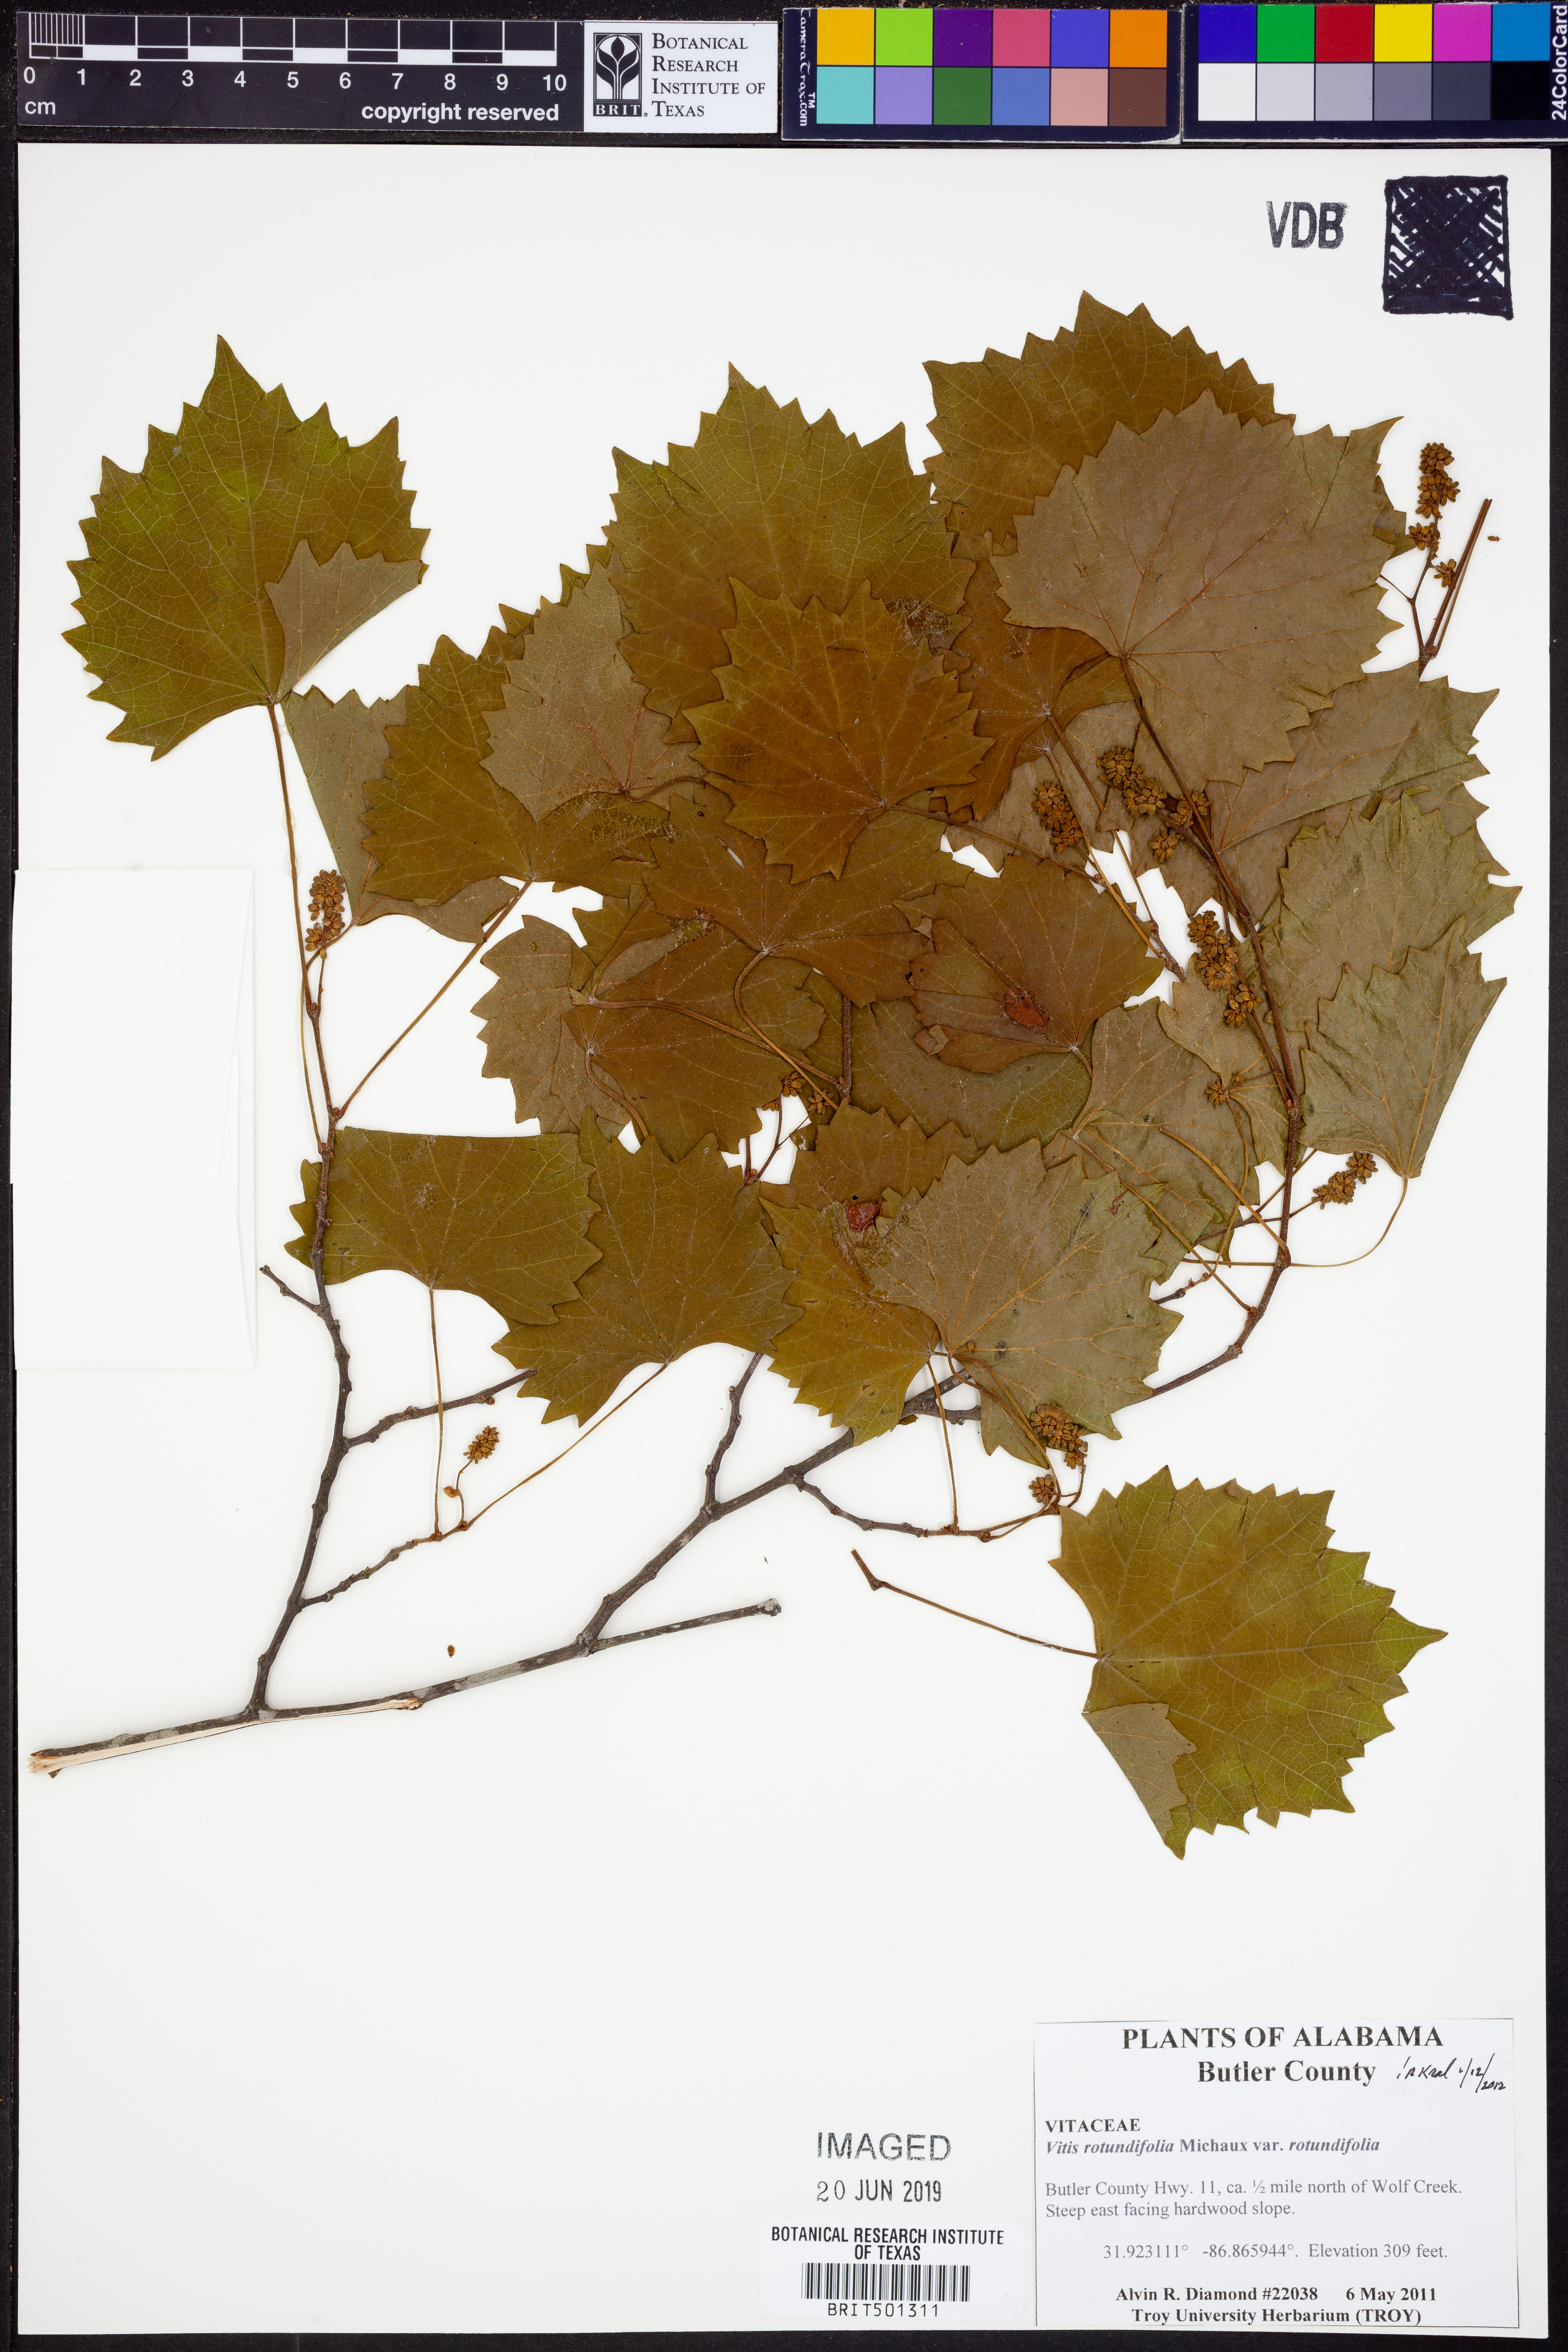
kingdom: Plantae
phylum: Tracheophyta
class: Magnoliopsida
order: Vitales
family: Vitaceae
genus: Vitis
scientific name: Vitis rotundifolia
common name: Muscadine grape
